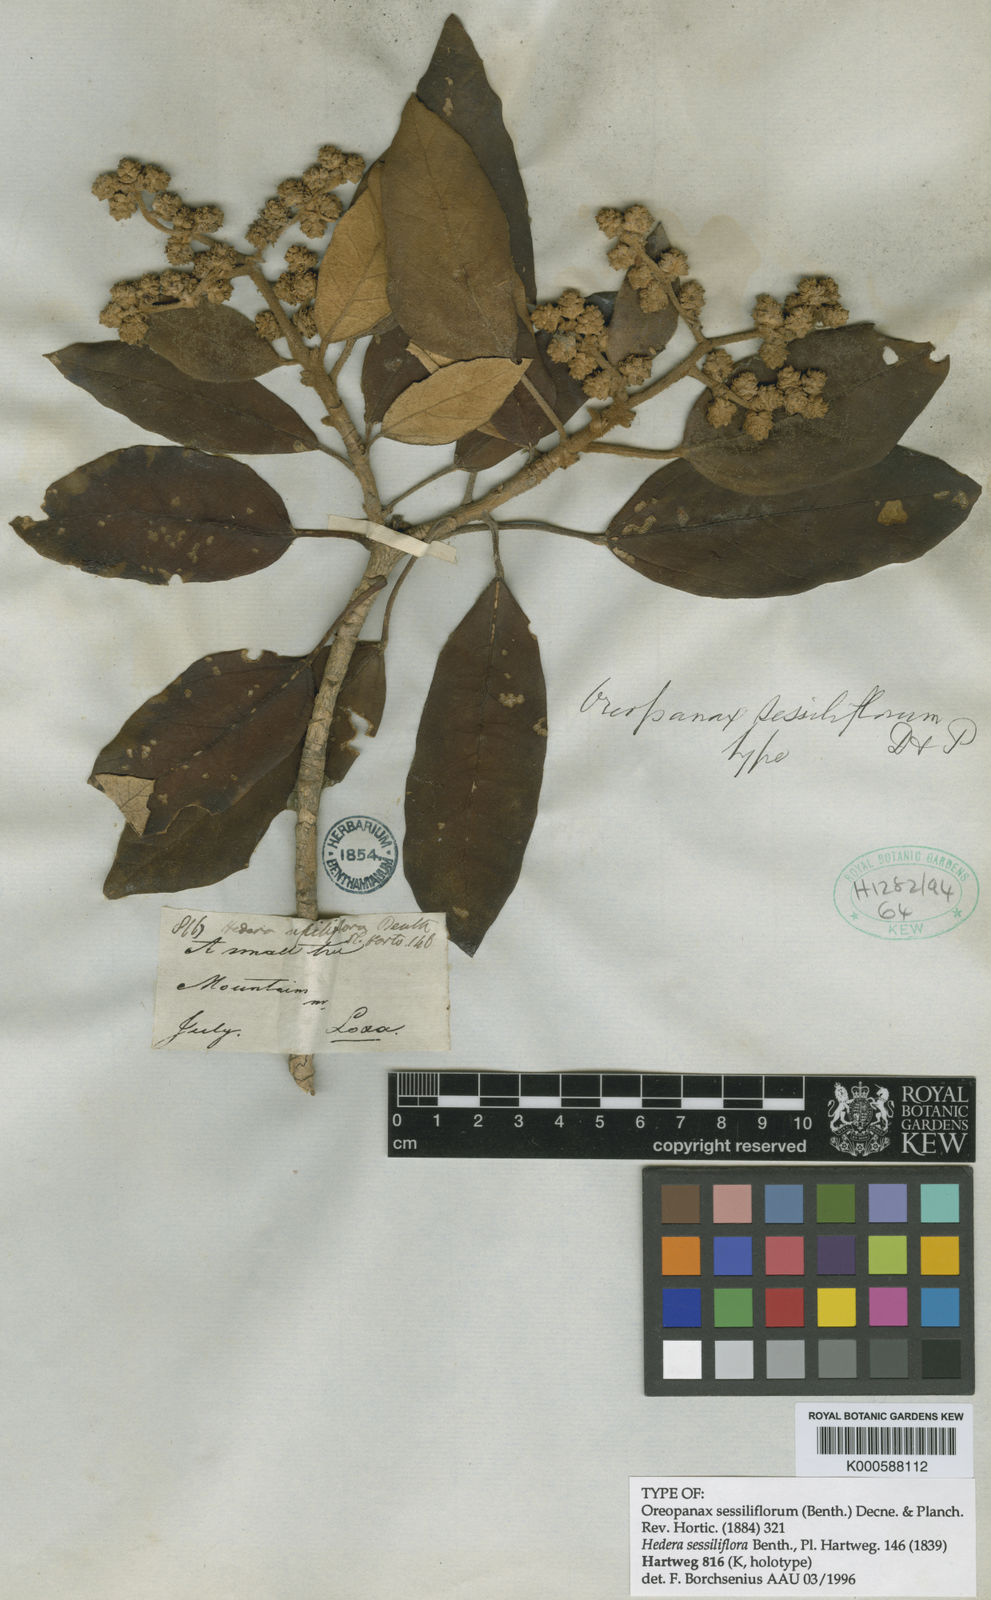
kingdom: Plantae
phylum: Tracheophyta
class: Magnoliopsida
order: Apiales
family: Araliaceae
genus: Oreopanax
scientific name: Oreopanax sessiliflorus
